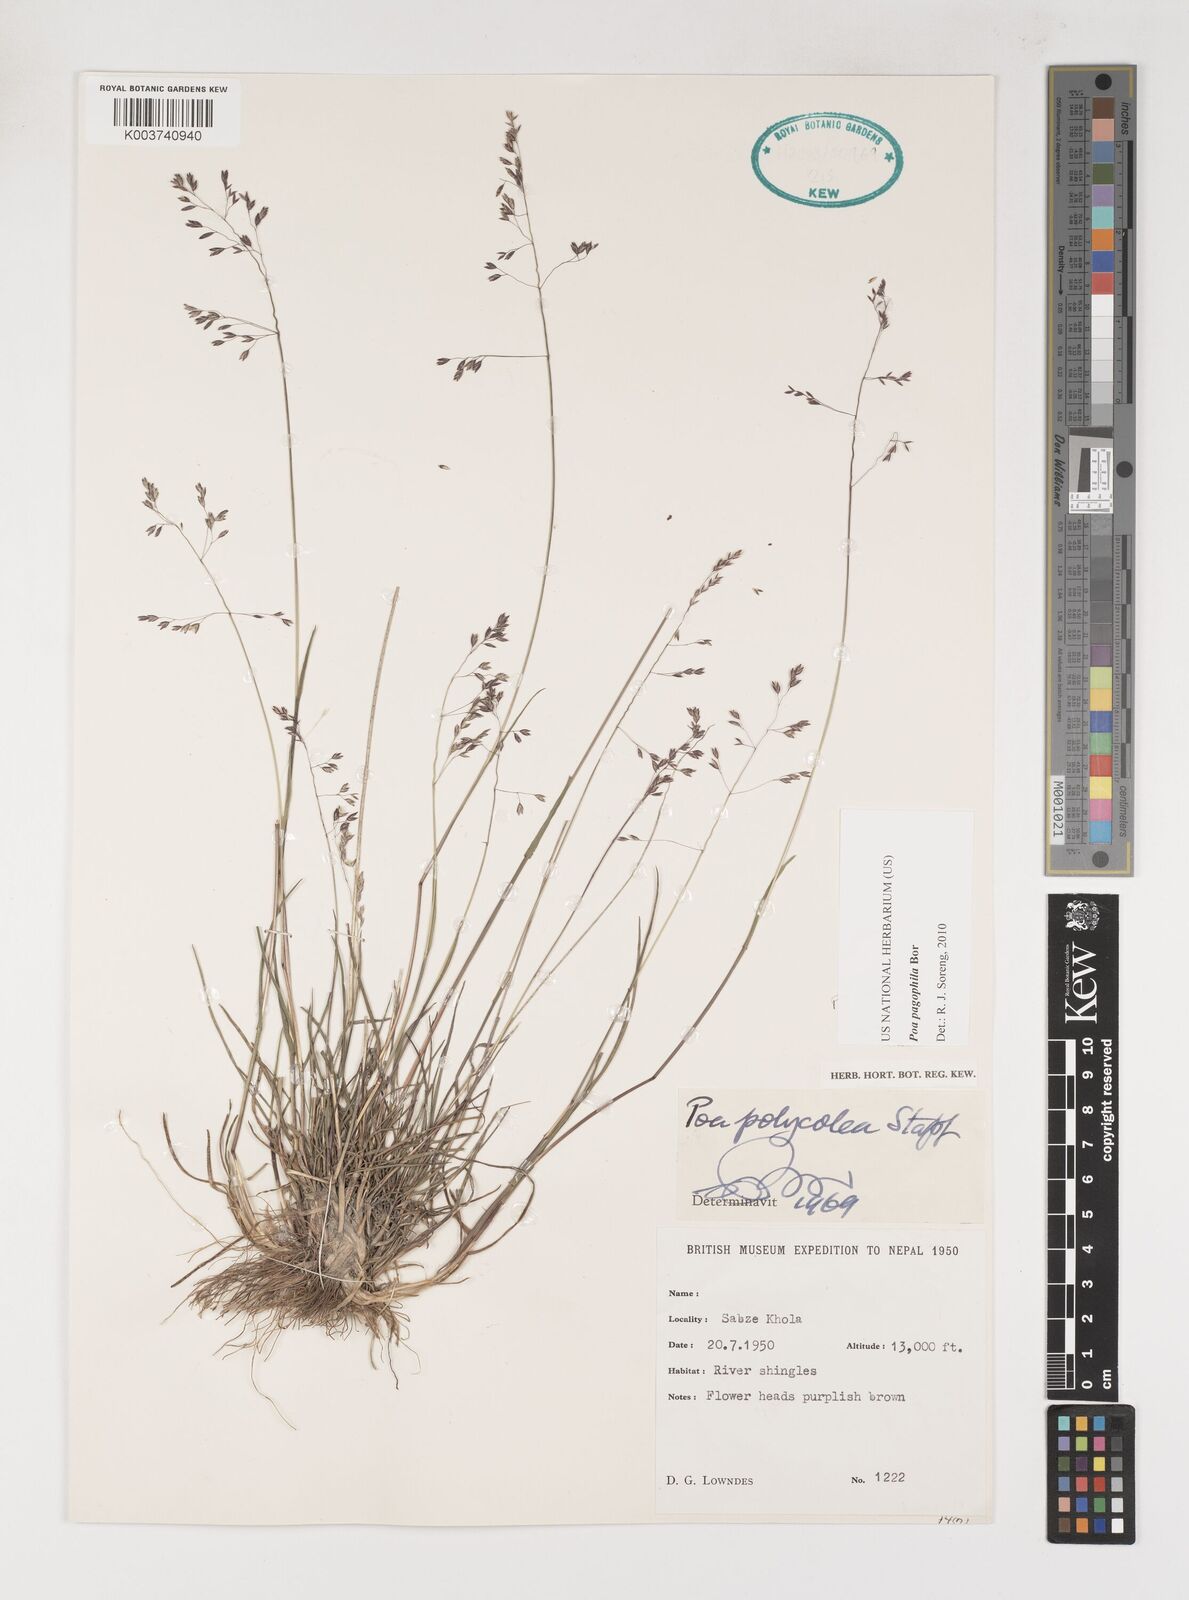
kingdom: Plantae
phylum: Tracheophyta
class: Liliopsida
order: Poales
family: Poaceae
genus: Poa
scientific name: Poa pagophila
